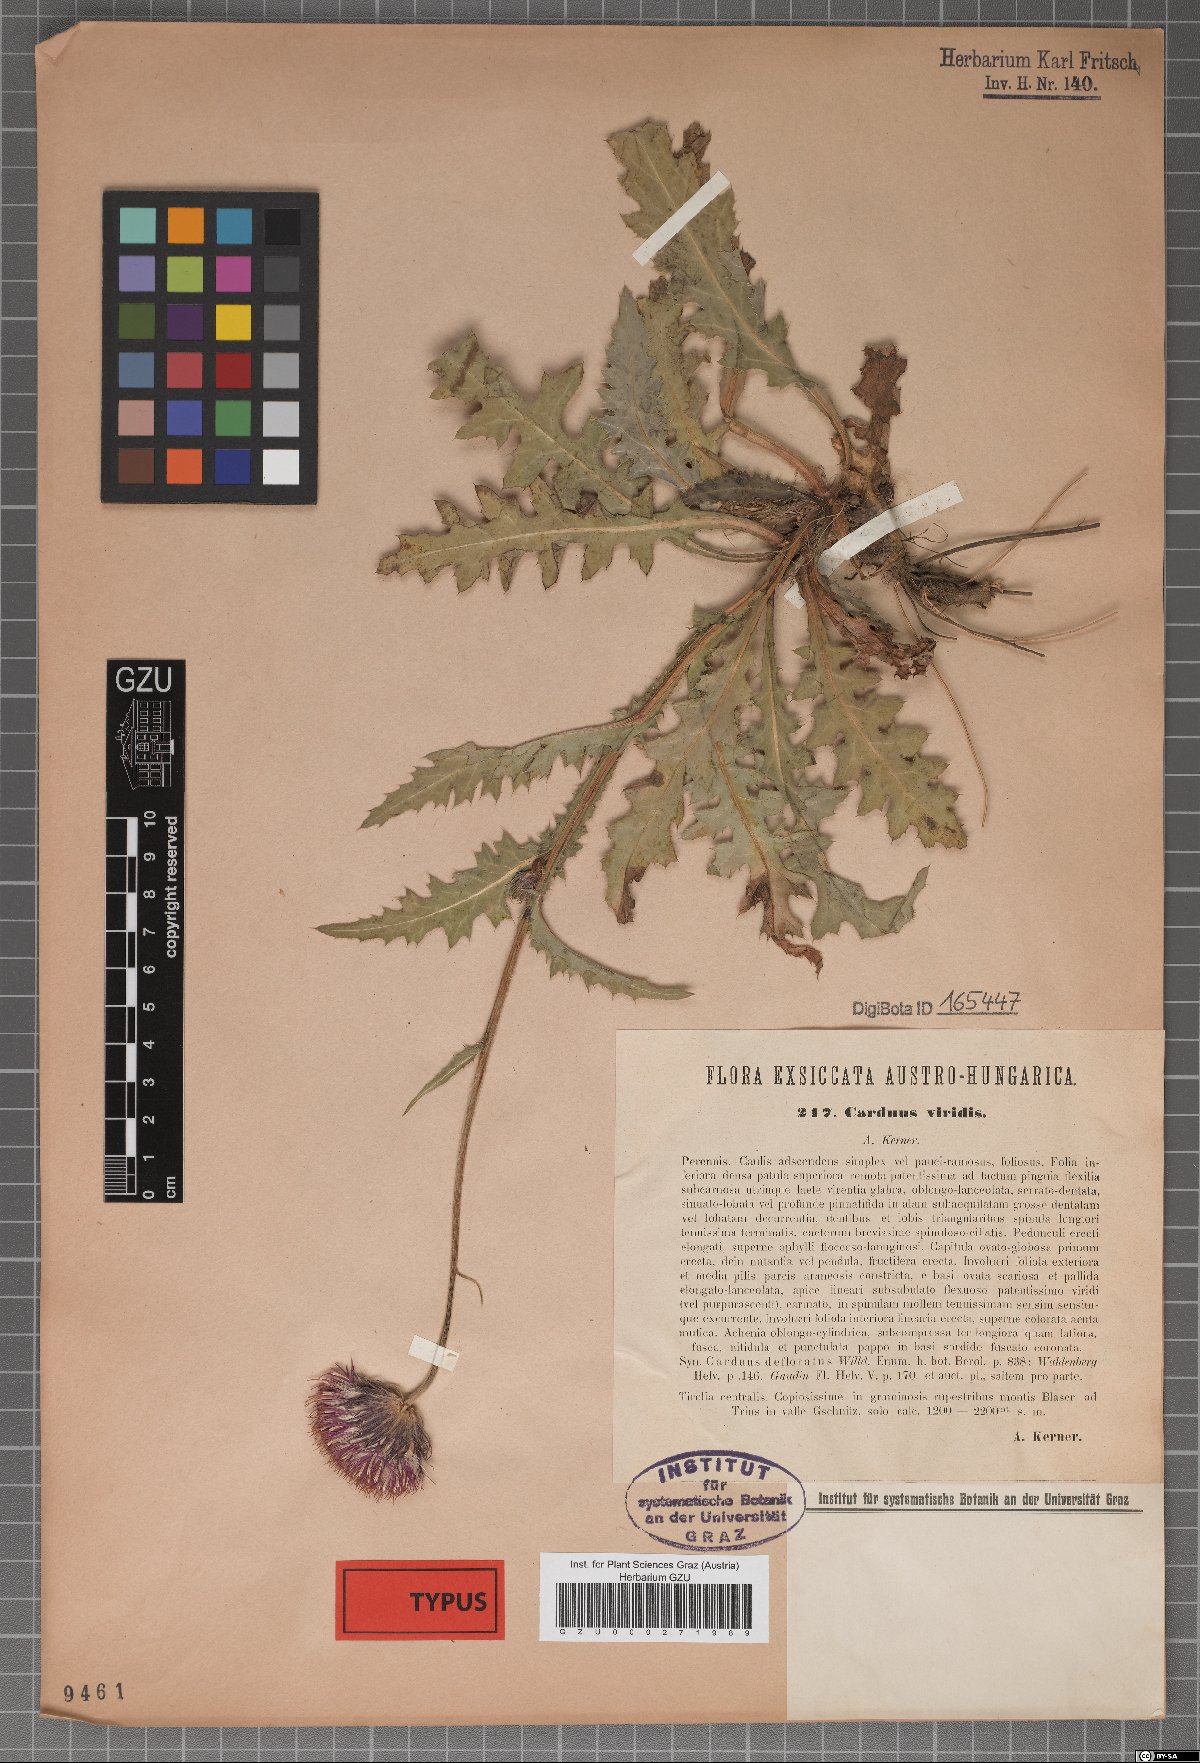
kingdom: Plantae
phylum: Tracheophyta
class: Magnoliopsida
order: Asterales
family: Asteraceae
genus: Carduus
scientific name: Carduus defloratus
